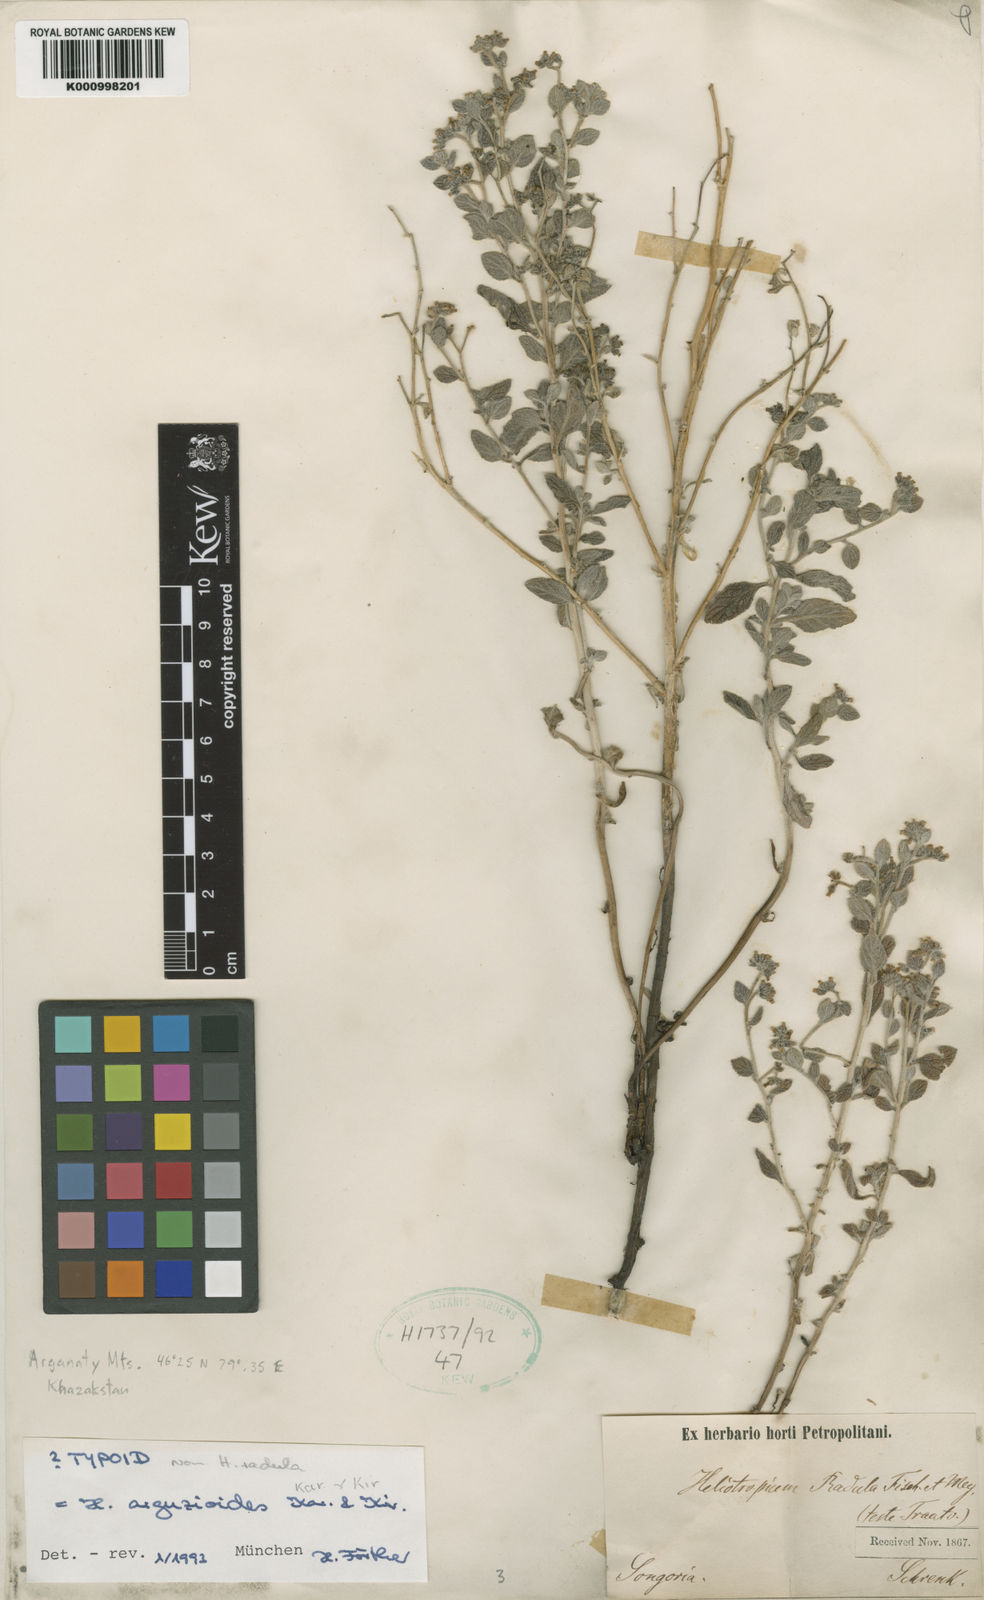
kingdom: Plantae
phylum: Tracheophyta
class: Magnoliopsida
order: Boraginales
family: Heliotropiaceae
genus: Heliotropium
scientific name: Heliotropium arguzioides
